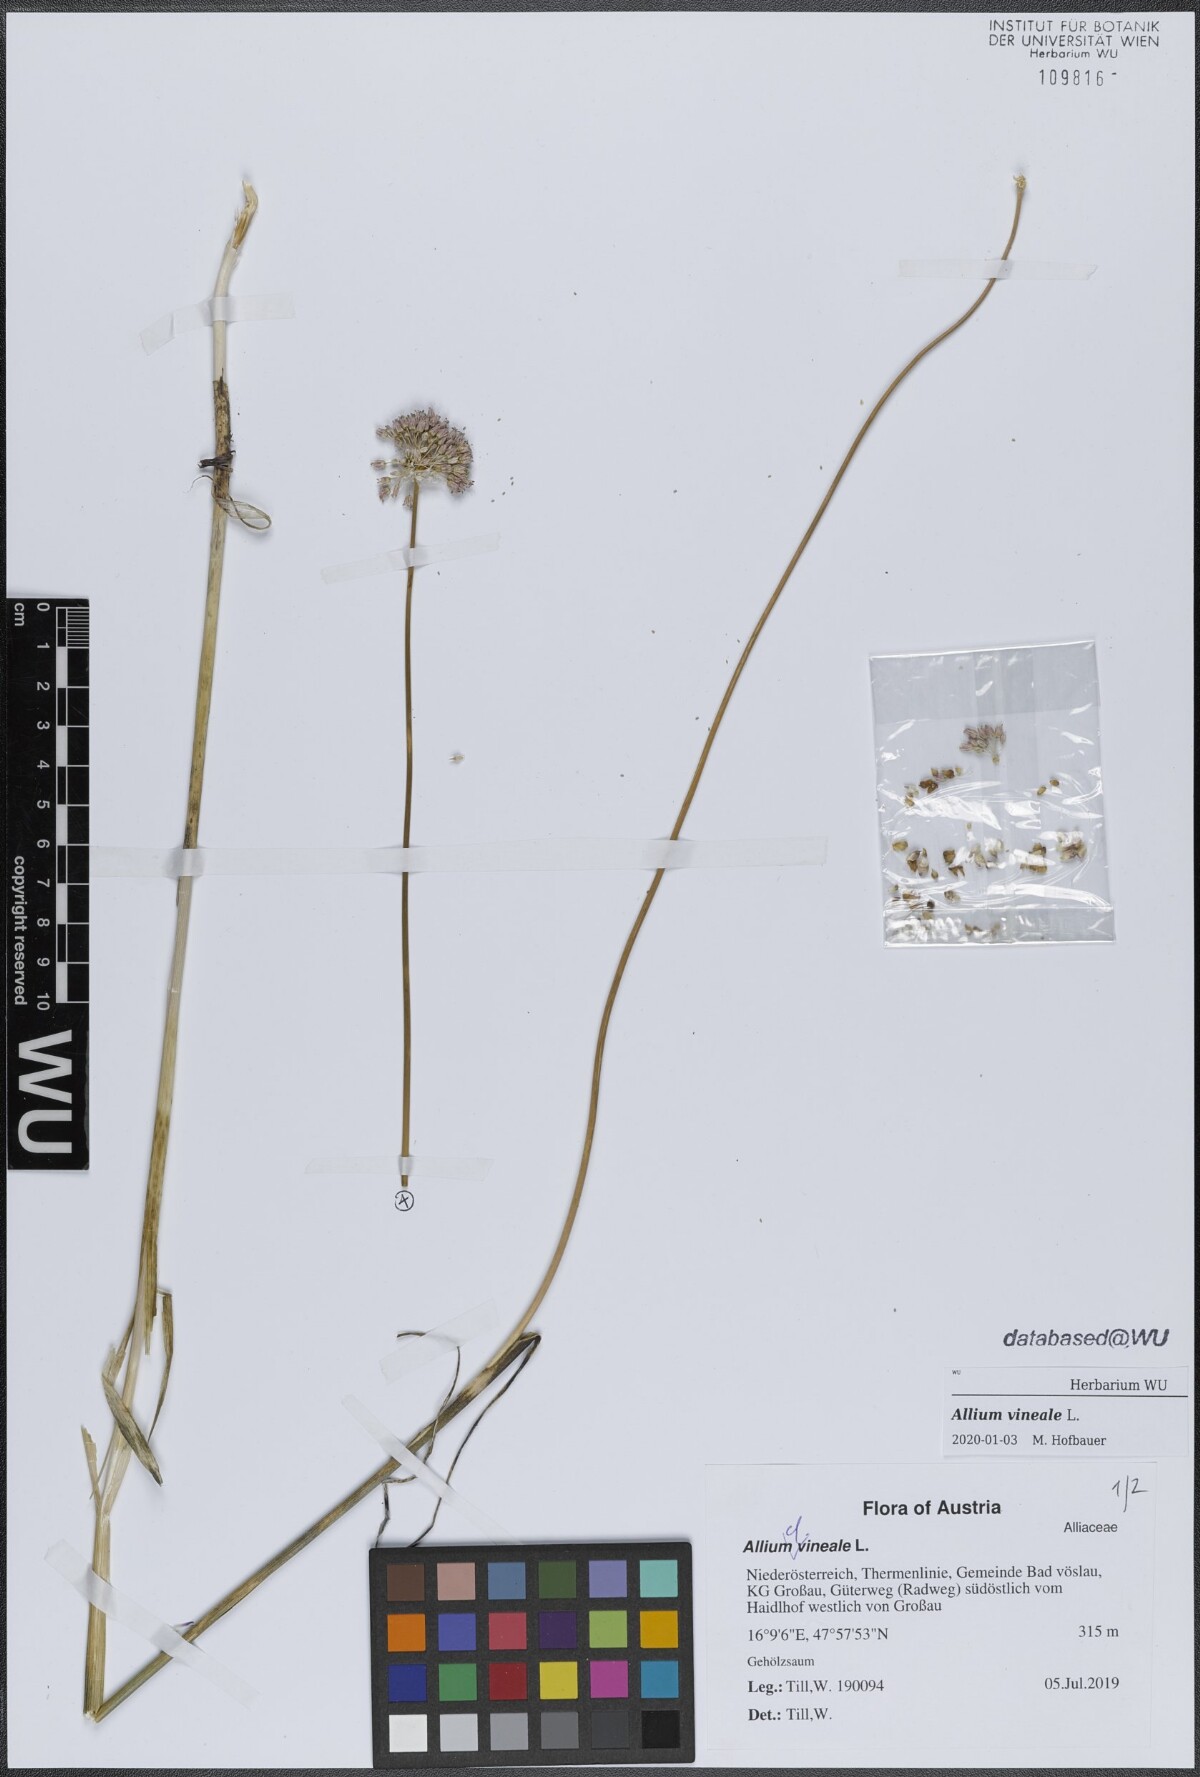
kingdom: Plantae
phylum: Tracheophyta
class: Liliopsida
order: Asparagales
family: Amaryllidaceae
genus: Allium
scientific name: Allium vineale
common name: Crow garlic
